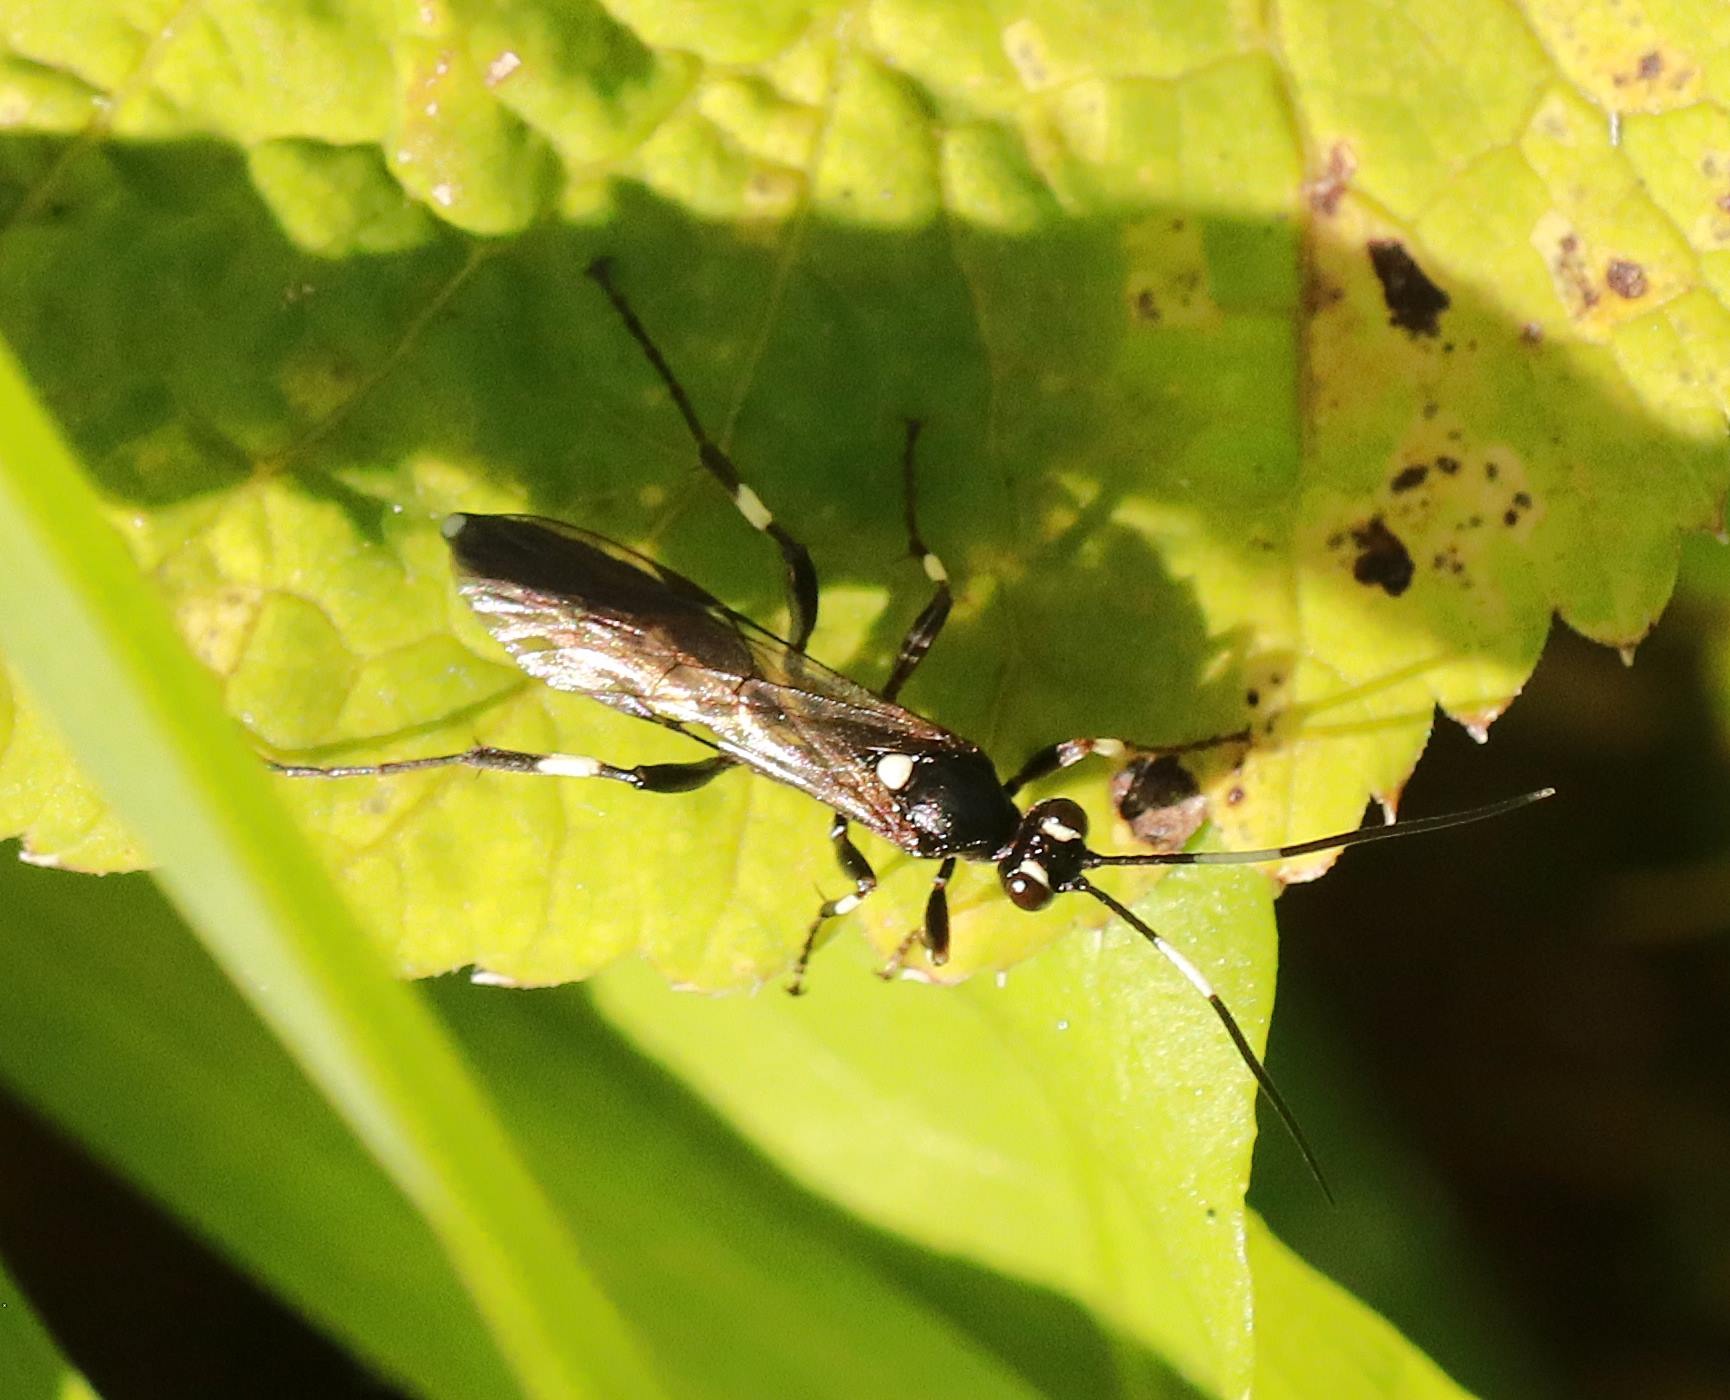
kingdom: Animalia
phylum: Arthropoda
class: Insecta
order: Hymenoptera
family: Ichneumonidae
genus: Achaius
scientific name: Achaius oratorius
